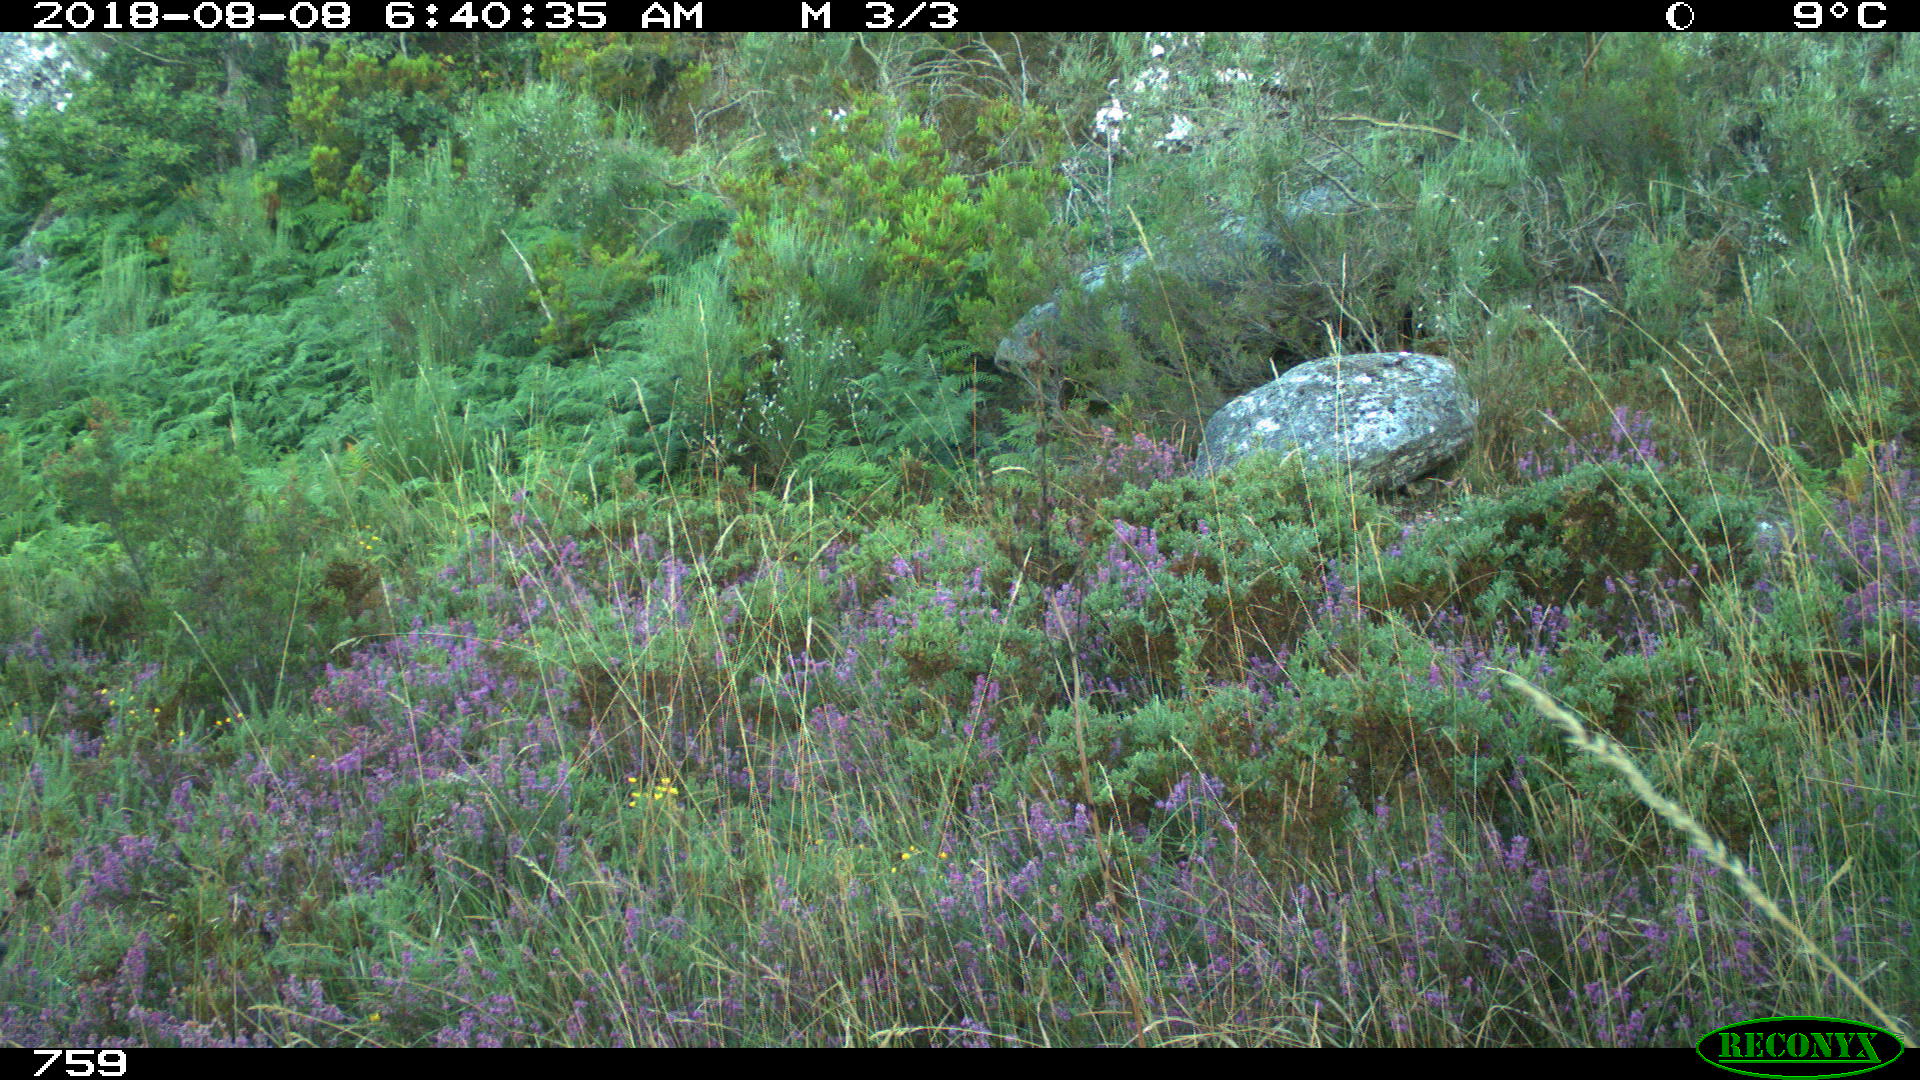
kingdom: Animalia
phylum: Chordata
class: Mammalia
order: Artiodactyla
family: Cervidae
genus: Capreolus
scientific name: Capreolus capreolus
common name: Western roe deer
